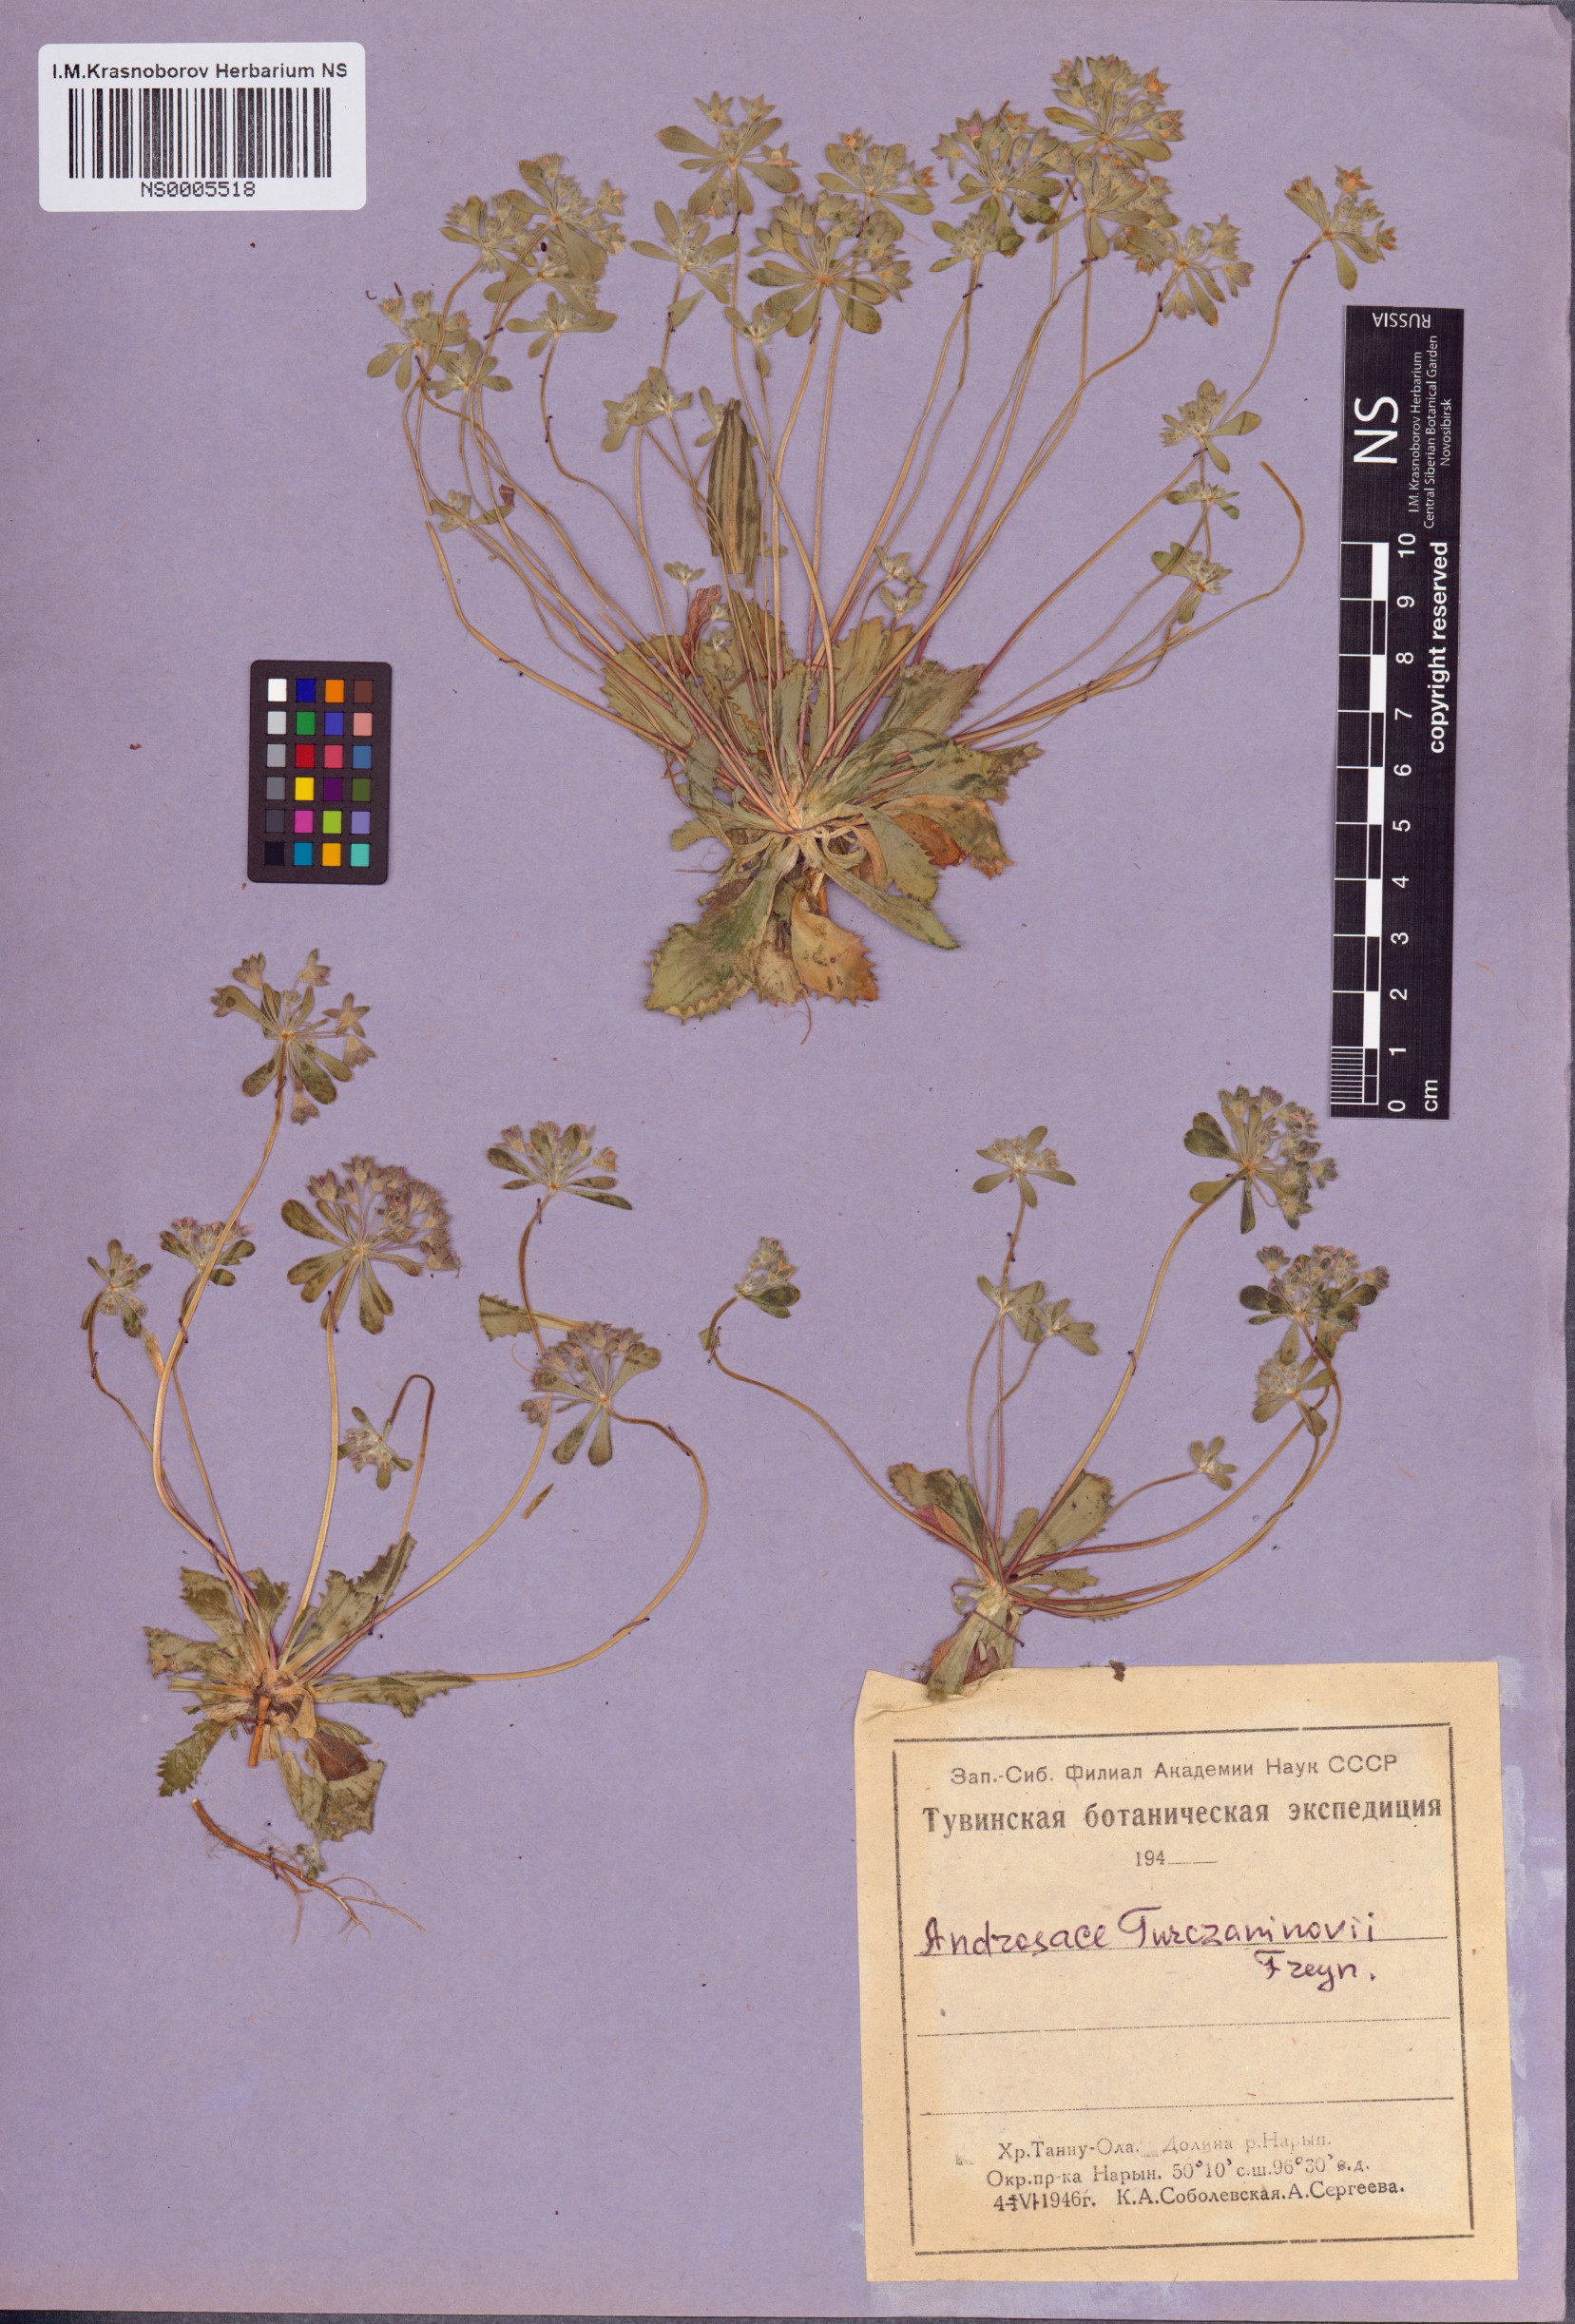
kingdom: Plantae
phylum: Tracheophyta
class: Magnoliopsida
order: Ericales
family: Primulaceae
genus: Androsace
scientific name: Androsace maxima
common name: Annual androsace
